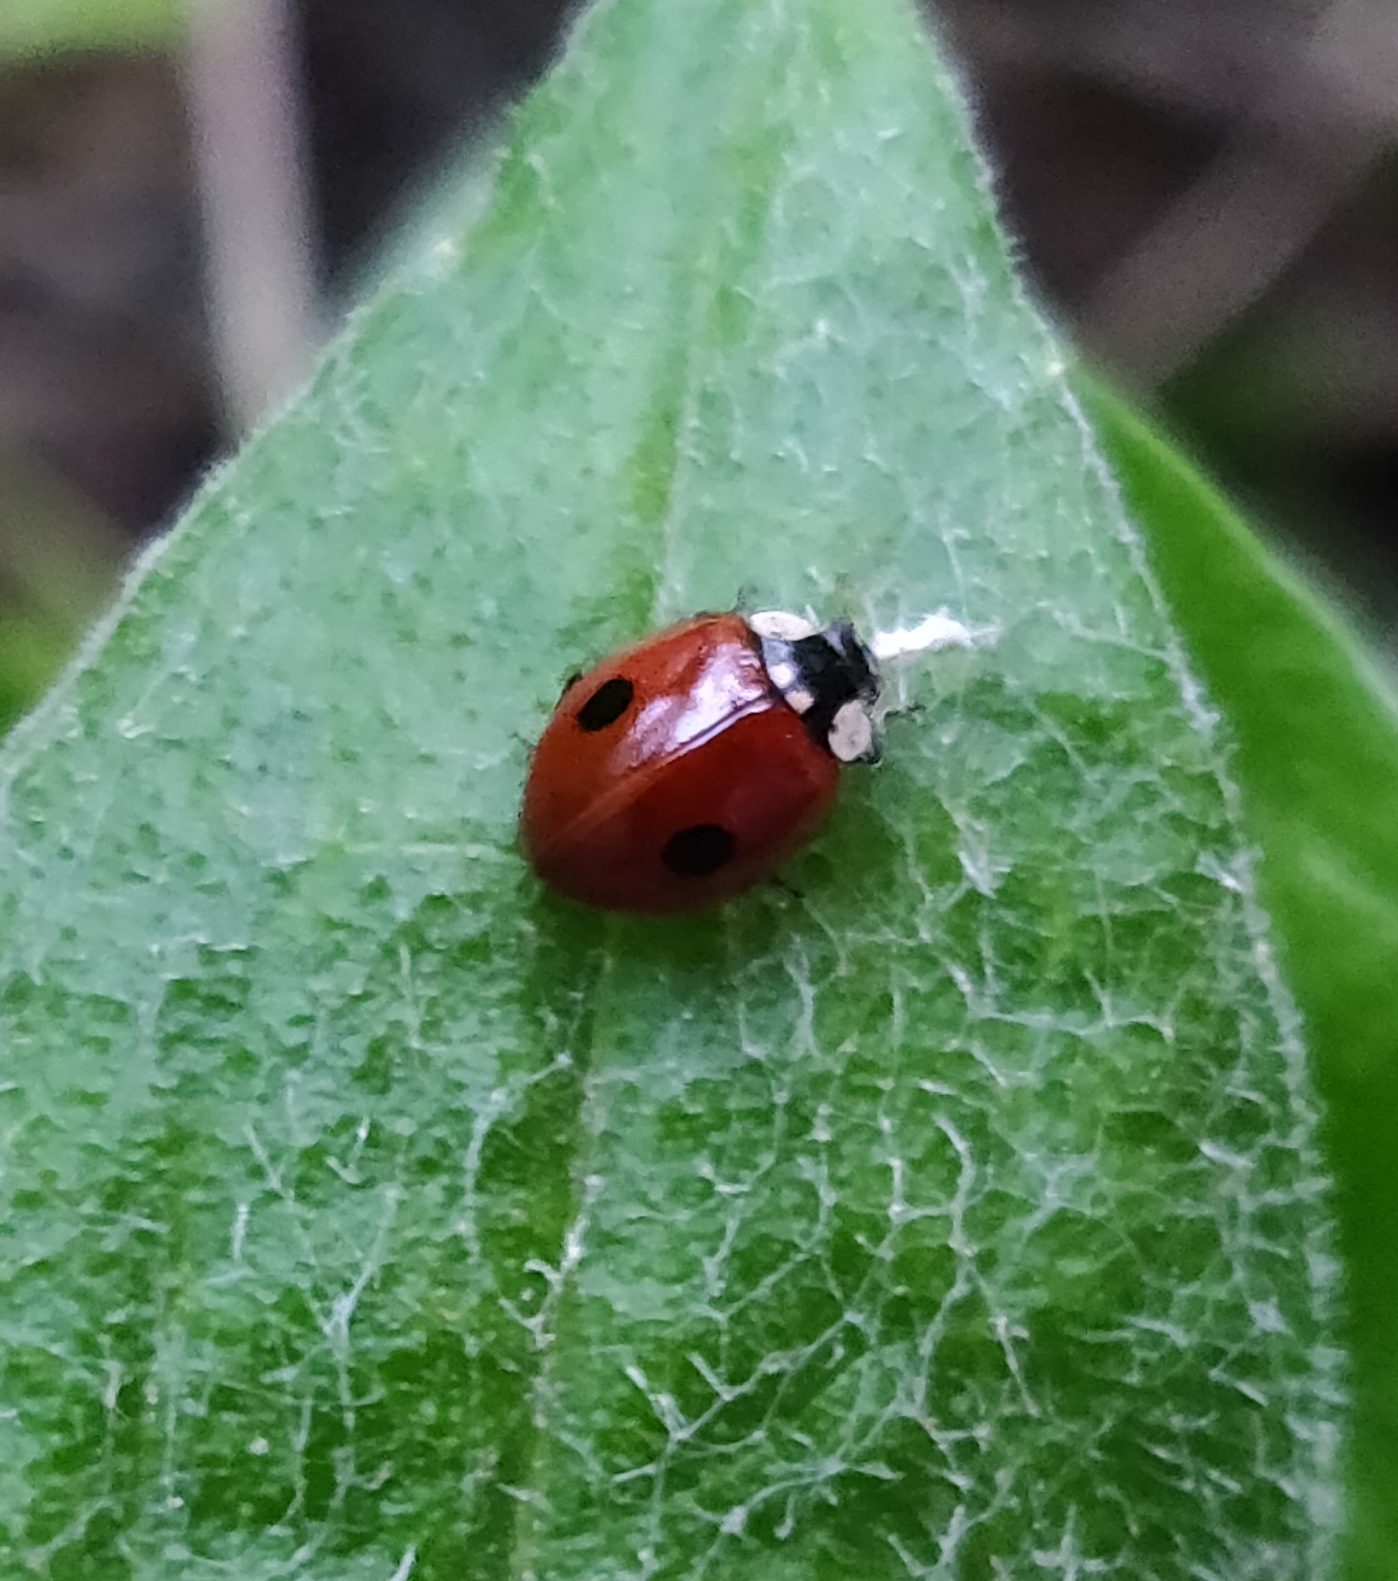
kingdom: Animalia
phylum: Arthropoda
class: Insecta
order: Coleoptera
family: Coccinellidae
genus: Adalia
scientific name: Adalia bipunctata
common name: Toplettet mariehøne
